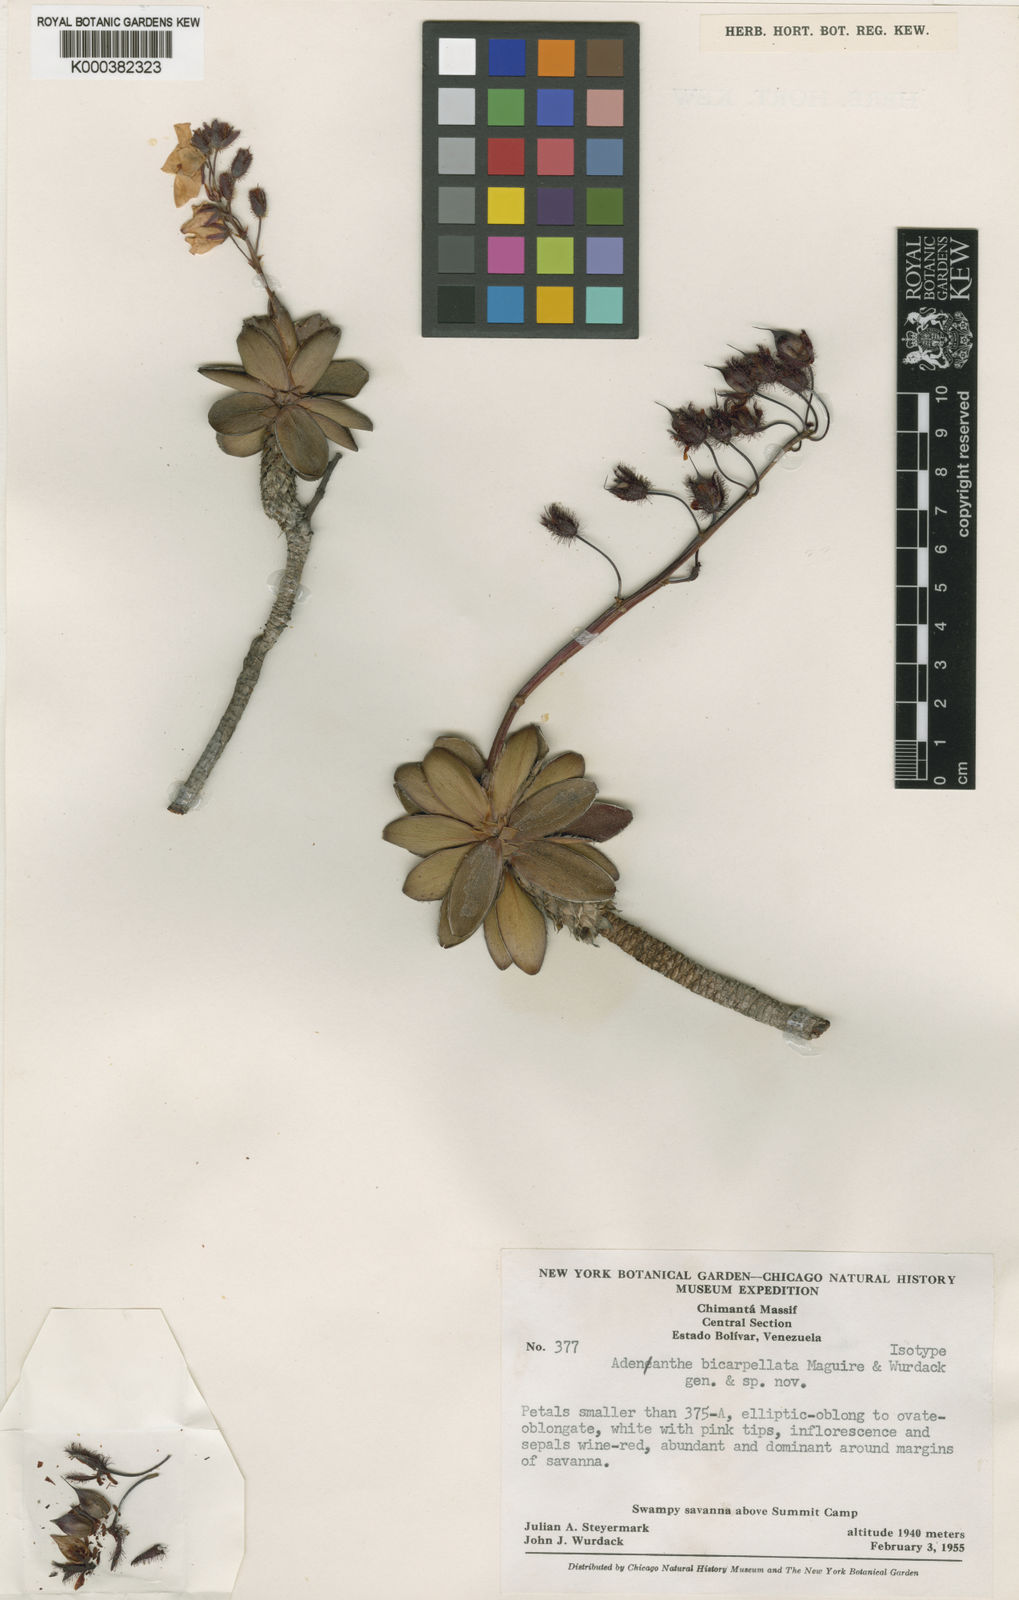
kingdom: Plantae
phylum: Tracheophyta
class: Magnoliopsida
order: Malpighiales
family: Ochnaceae
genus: Tyleria
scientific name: Tyleria bicarpellata
